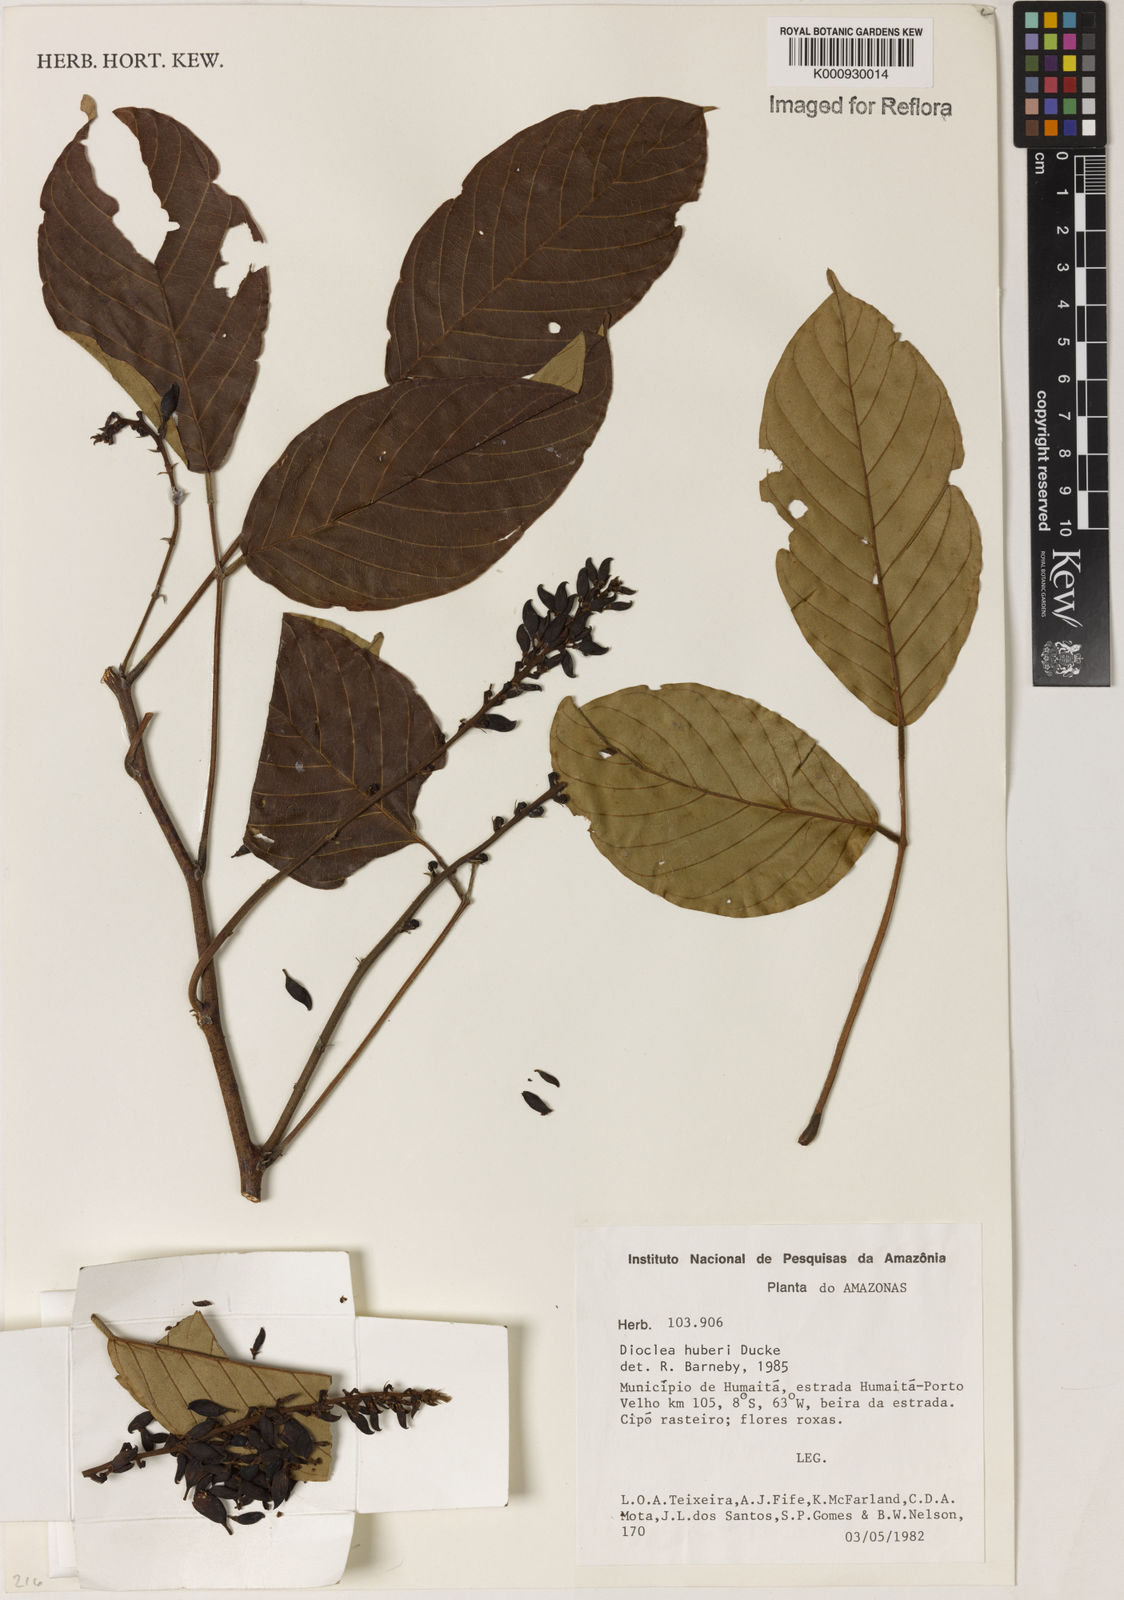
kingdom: Plantae
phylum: Tracheophyta
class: Magnoliopsida
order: Fabales
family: Fabaceae
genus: Macropsychanthus
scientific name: Macropsychanthus huberi
